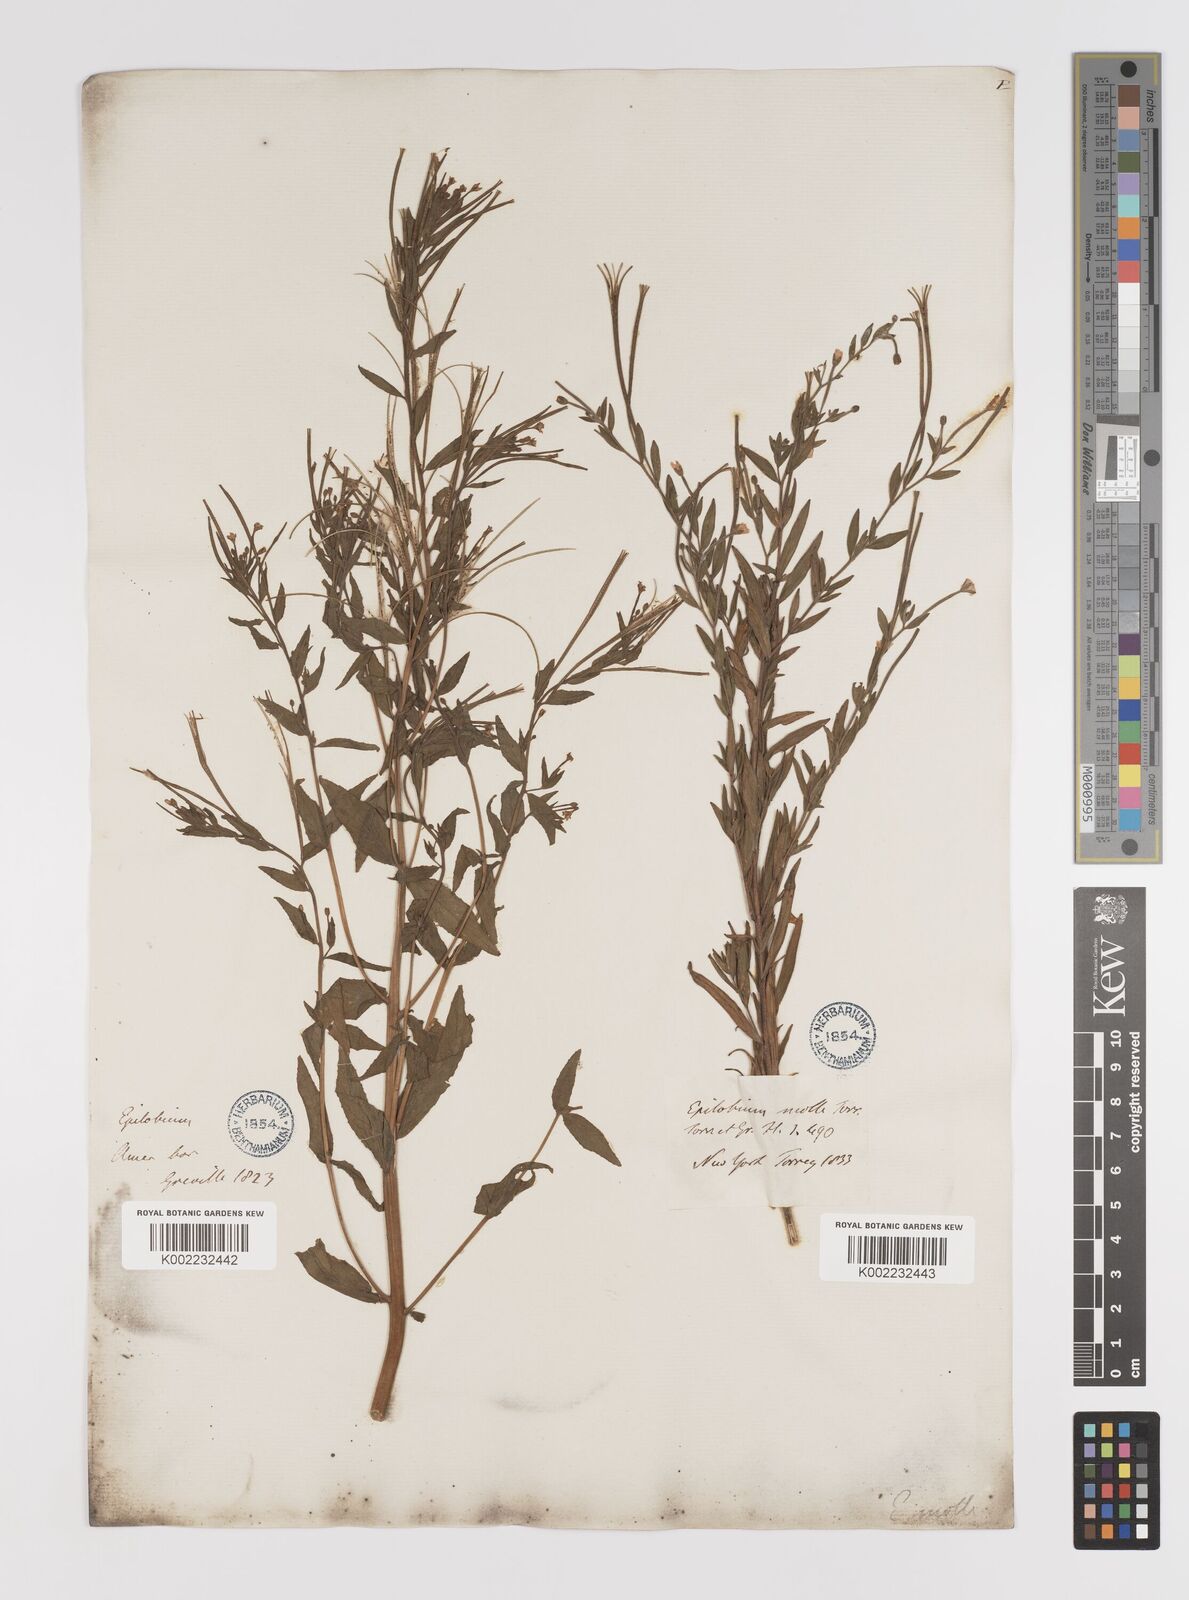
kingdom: Plantae
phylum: Tracheophyta
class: Magnoliopsida
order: Myrtales
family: Onagraceae
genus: Epilobium
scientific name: Epilobium densum
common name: Downy willowherb
